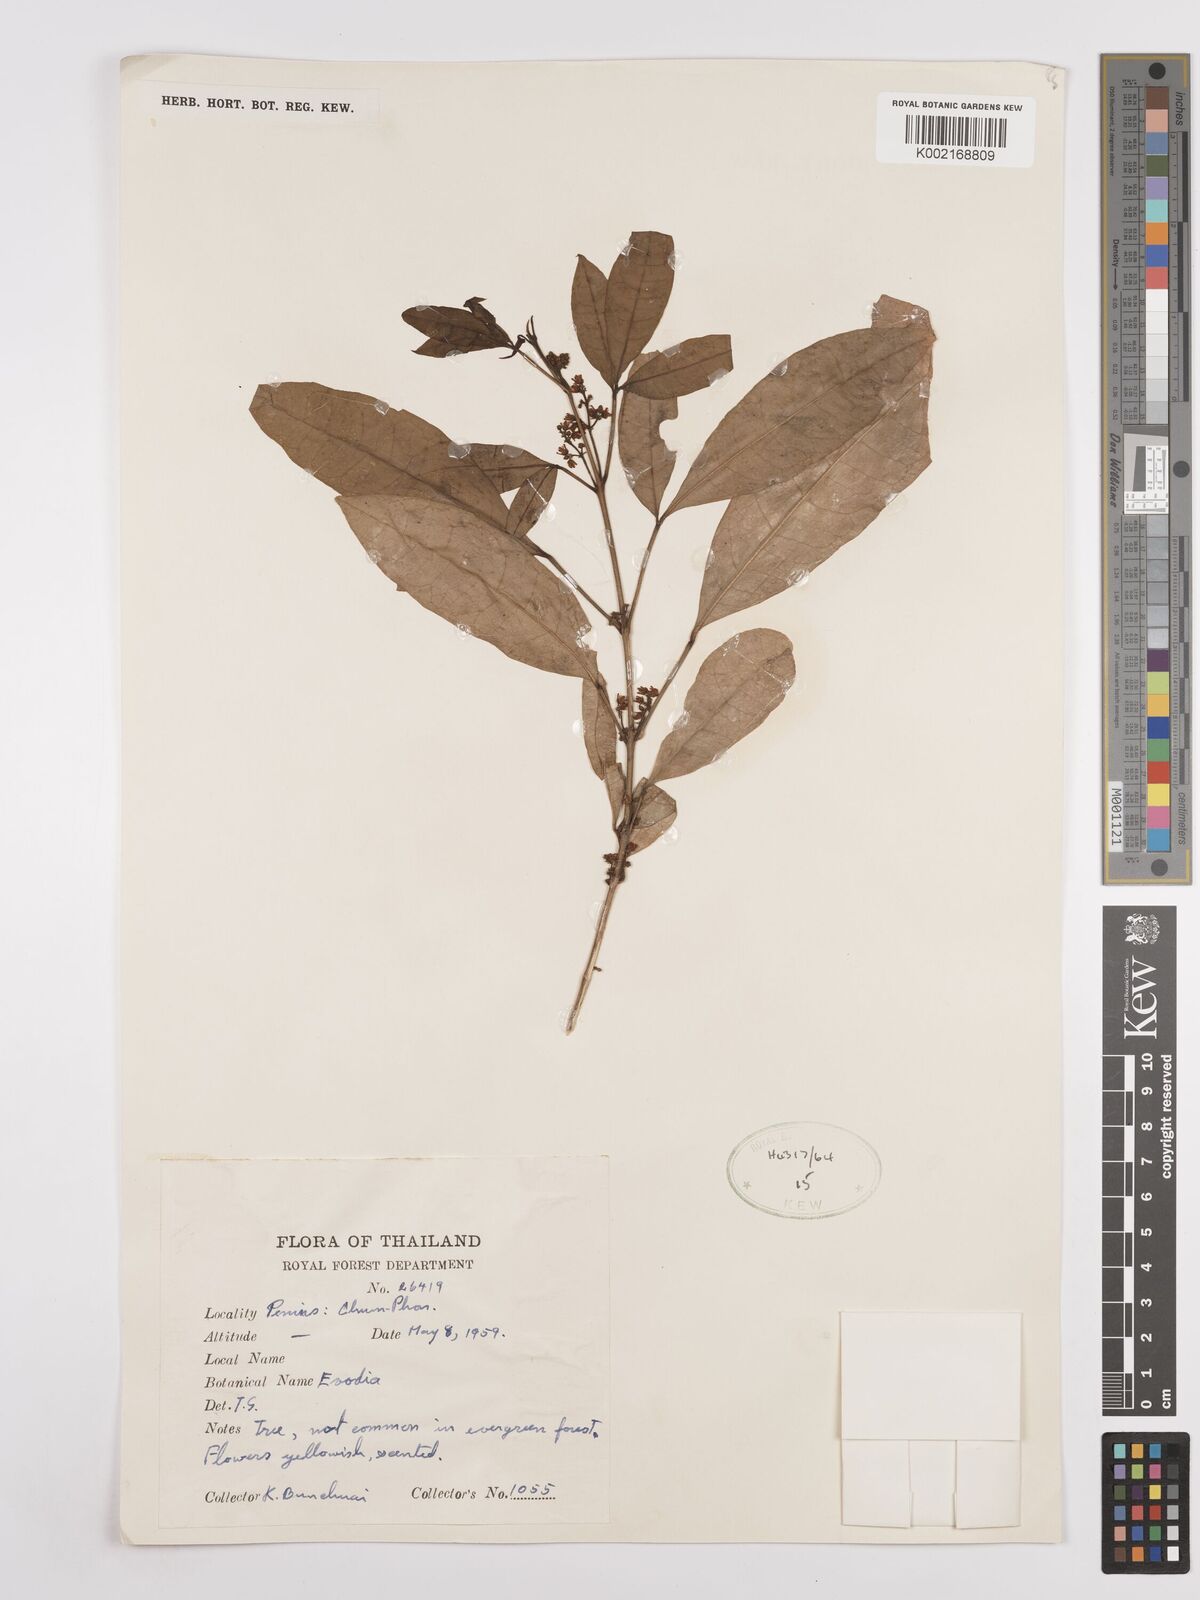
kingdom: Plantae
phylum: Tracheophyta
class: Magnoliopsida
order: Sapindales
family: Rutaceae
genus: Euodia
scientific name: Euodia
